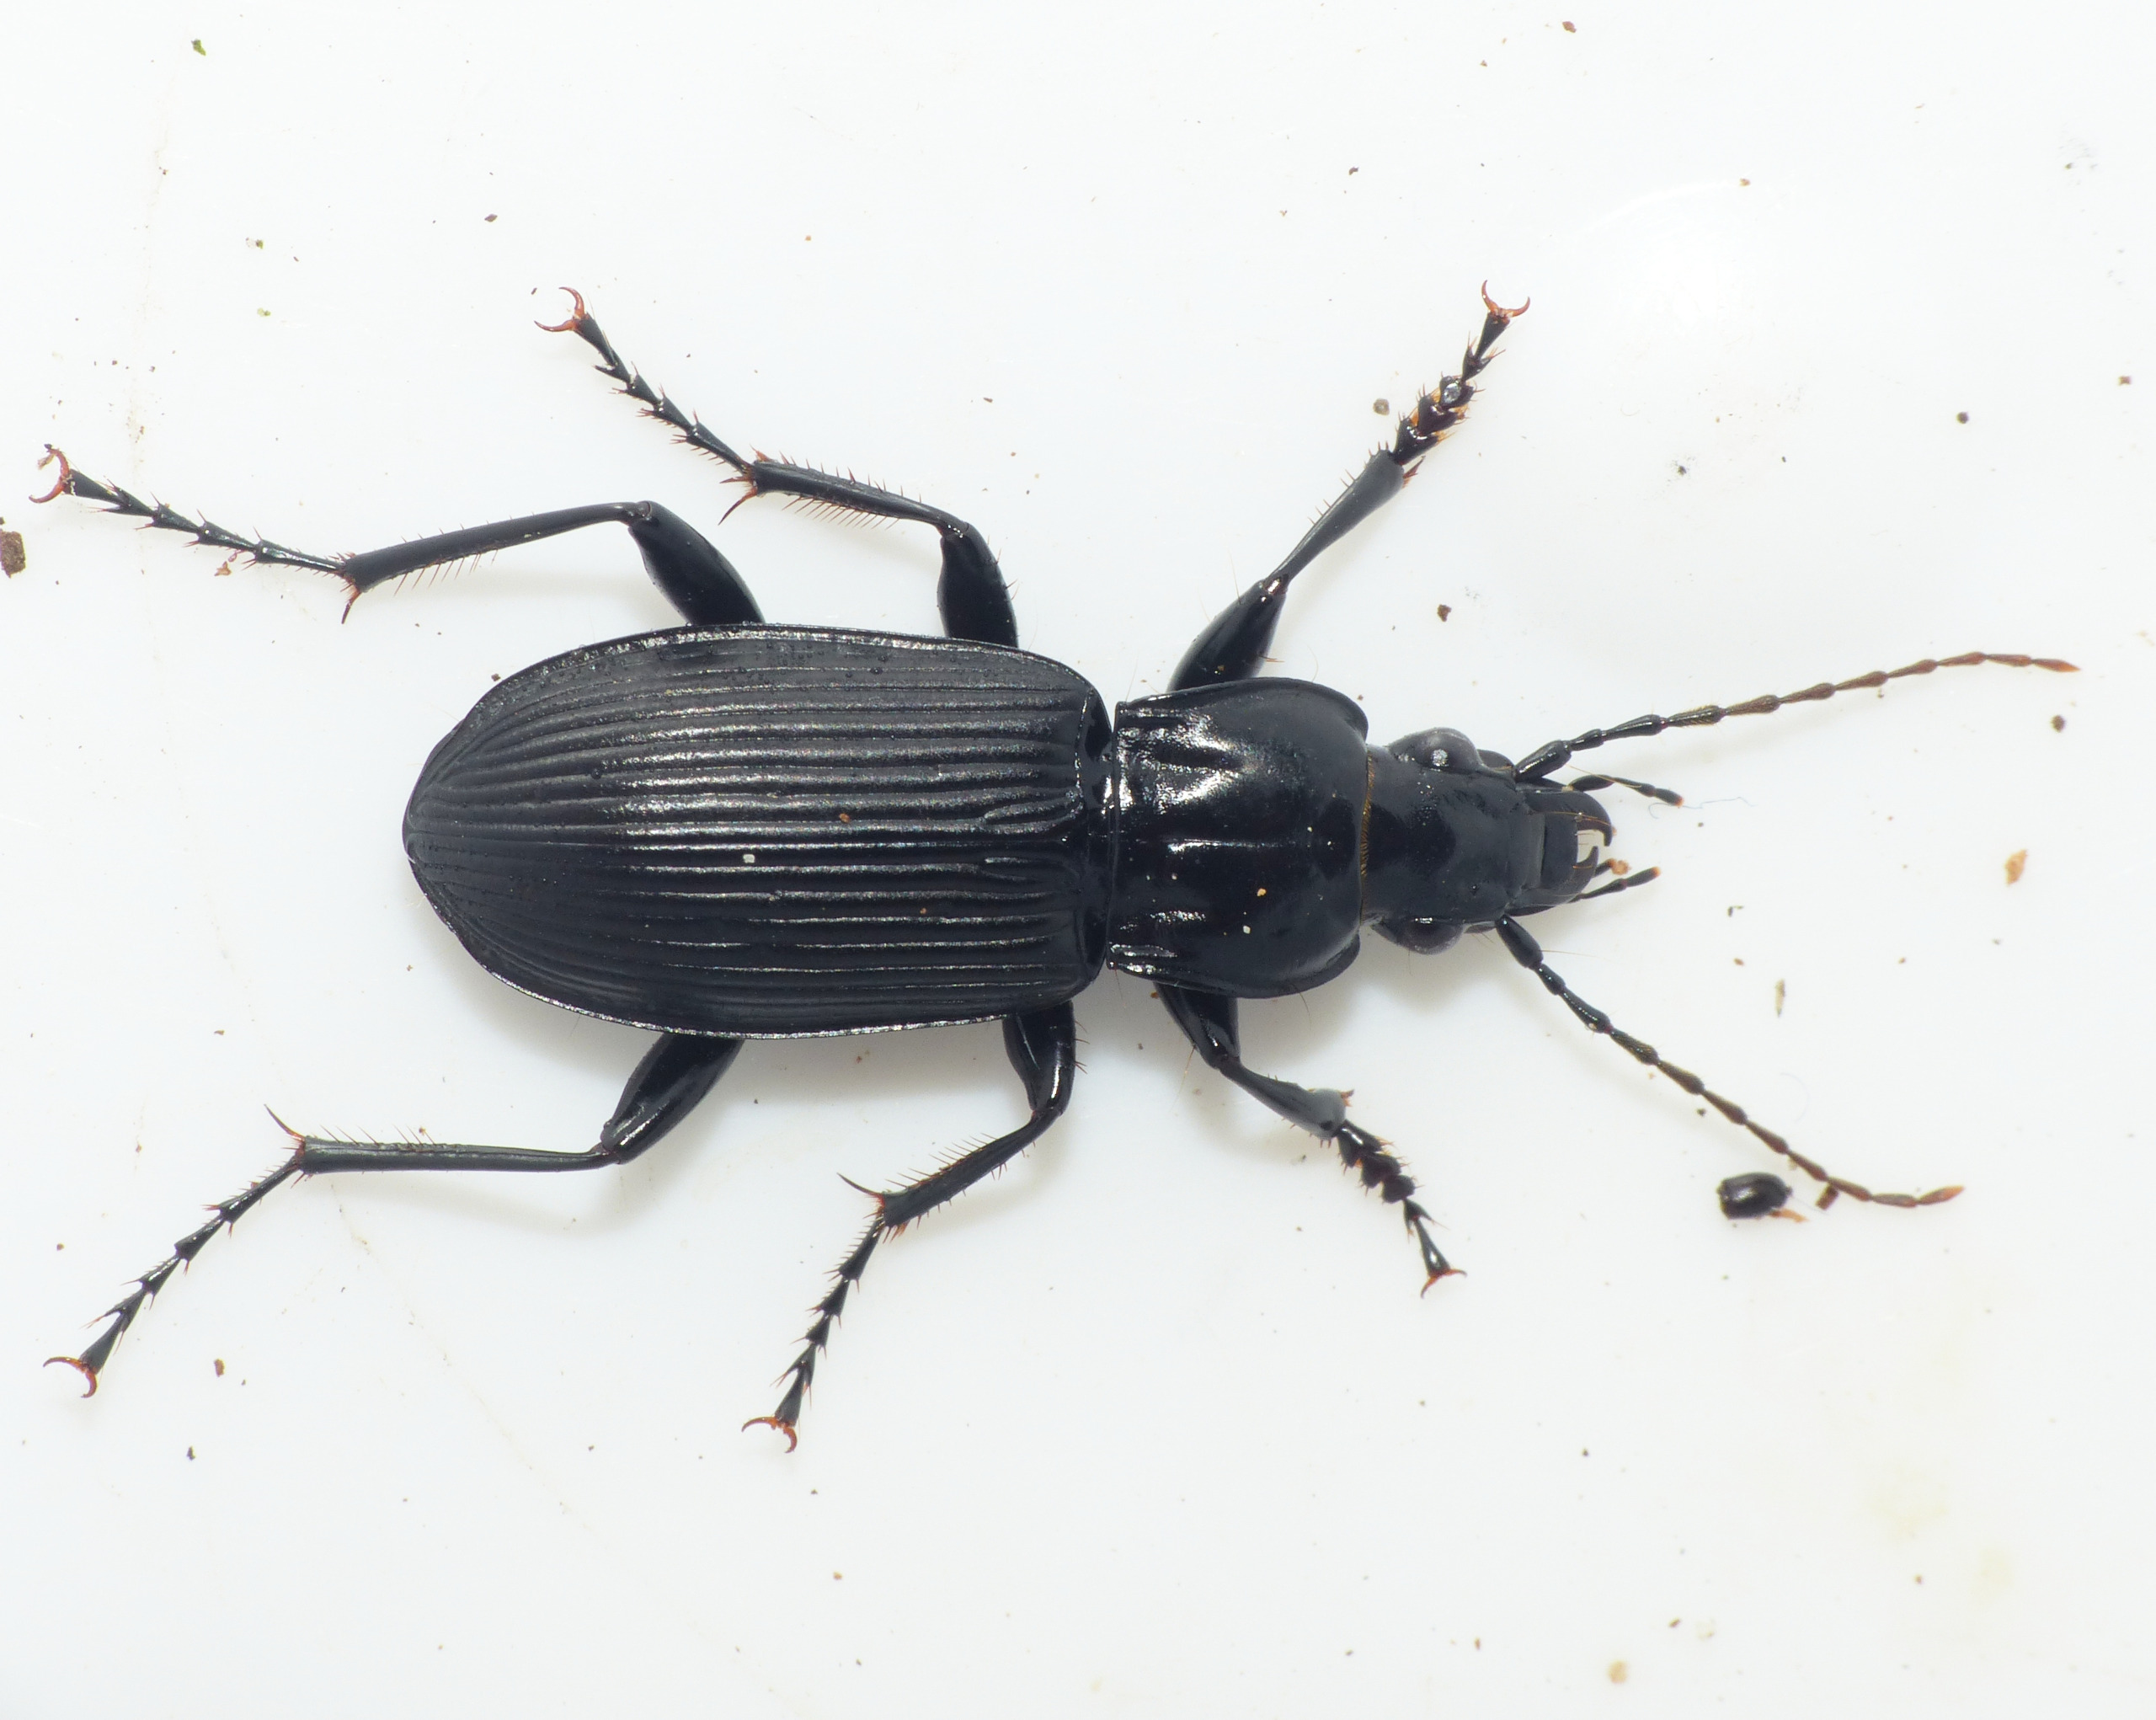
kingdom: Animalia
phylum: Arthropoda
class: Insecta
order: Coleoptera
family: Carabidae
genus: Pterostichus
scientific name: Pterostichus niger
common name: Skovjordløber
